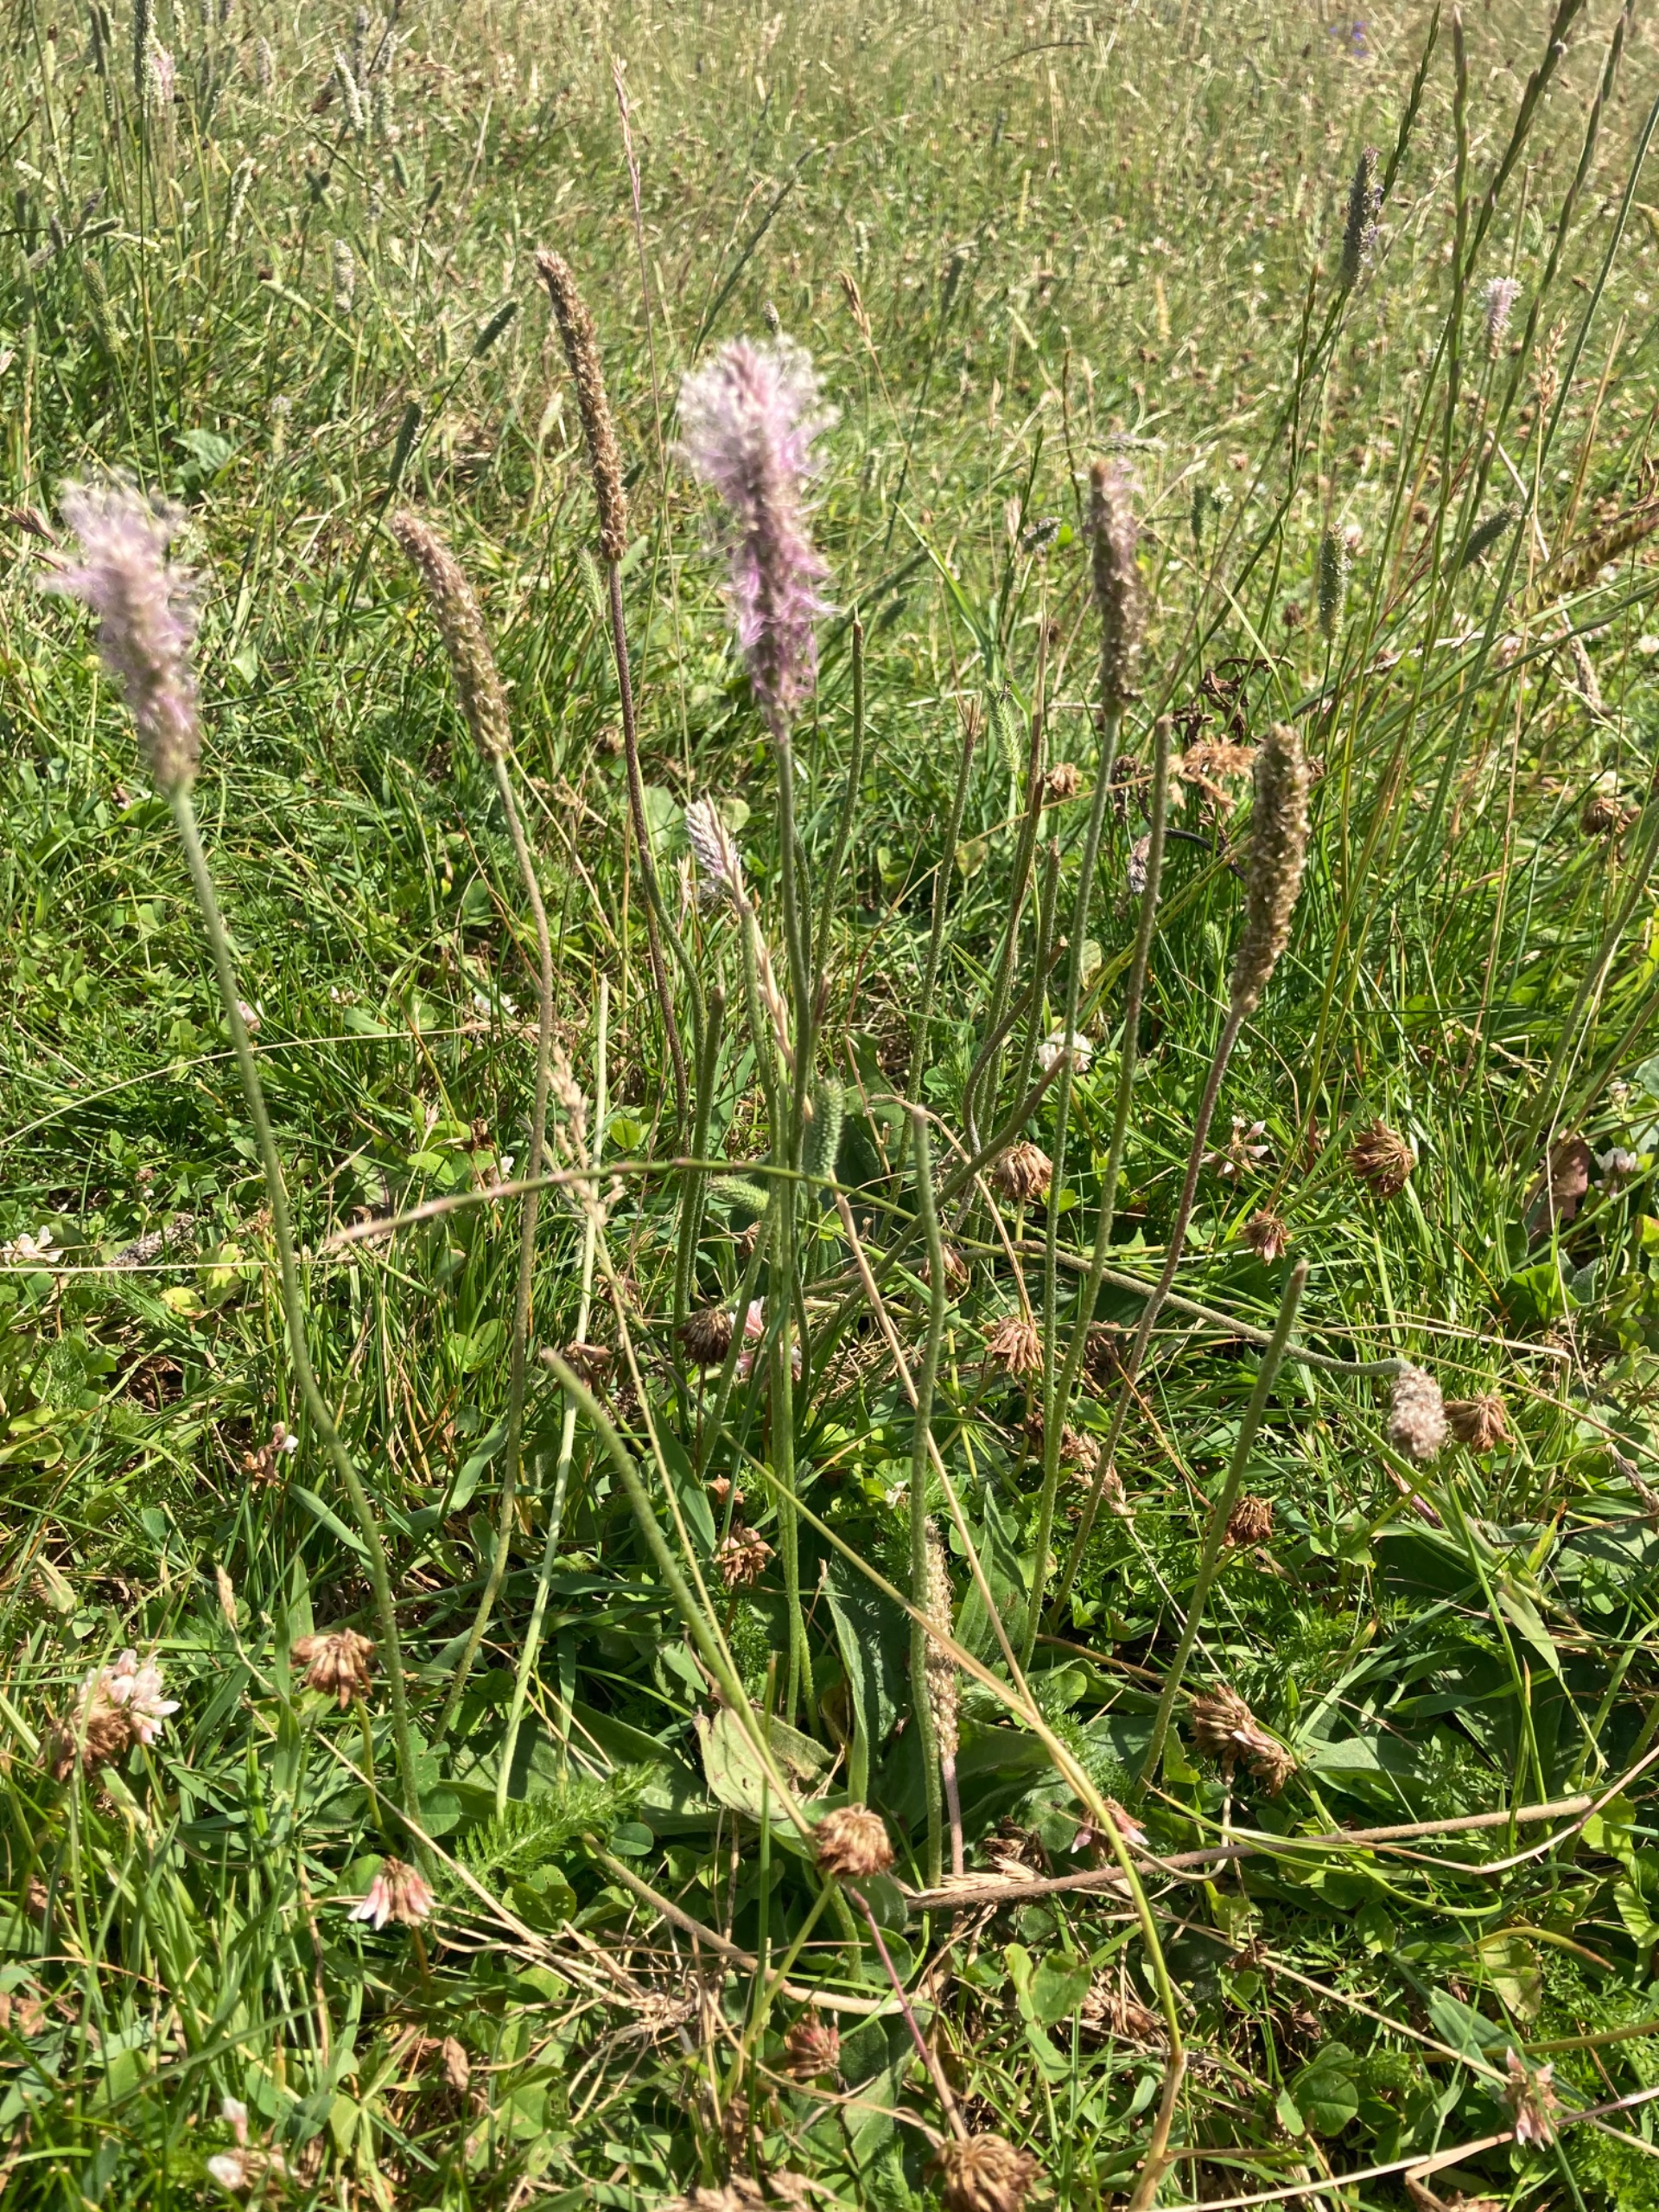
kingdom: Plantae
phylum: Tracheophyta
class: Magnoliopsida
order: Lamiales
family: Plantaginaceae
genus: Plantago
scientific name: Plantago media
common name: Dunet vejbred
